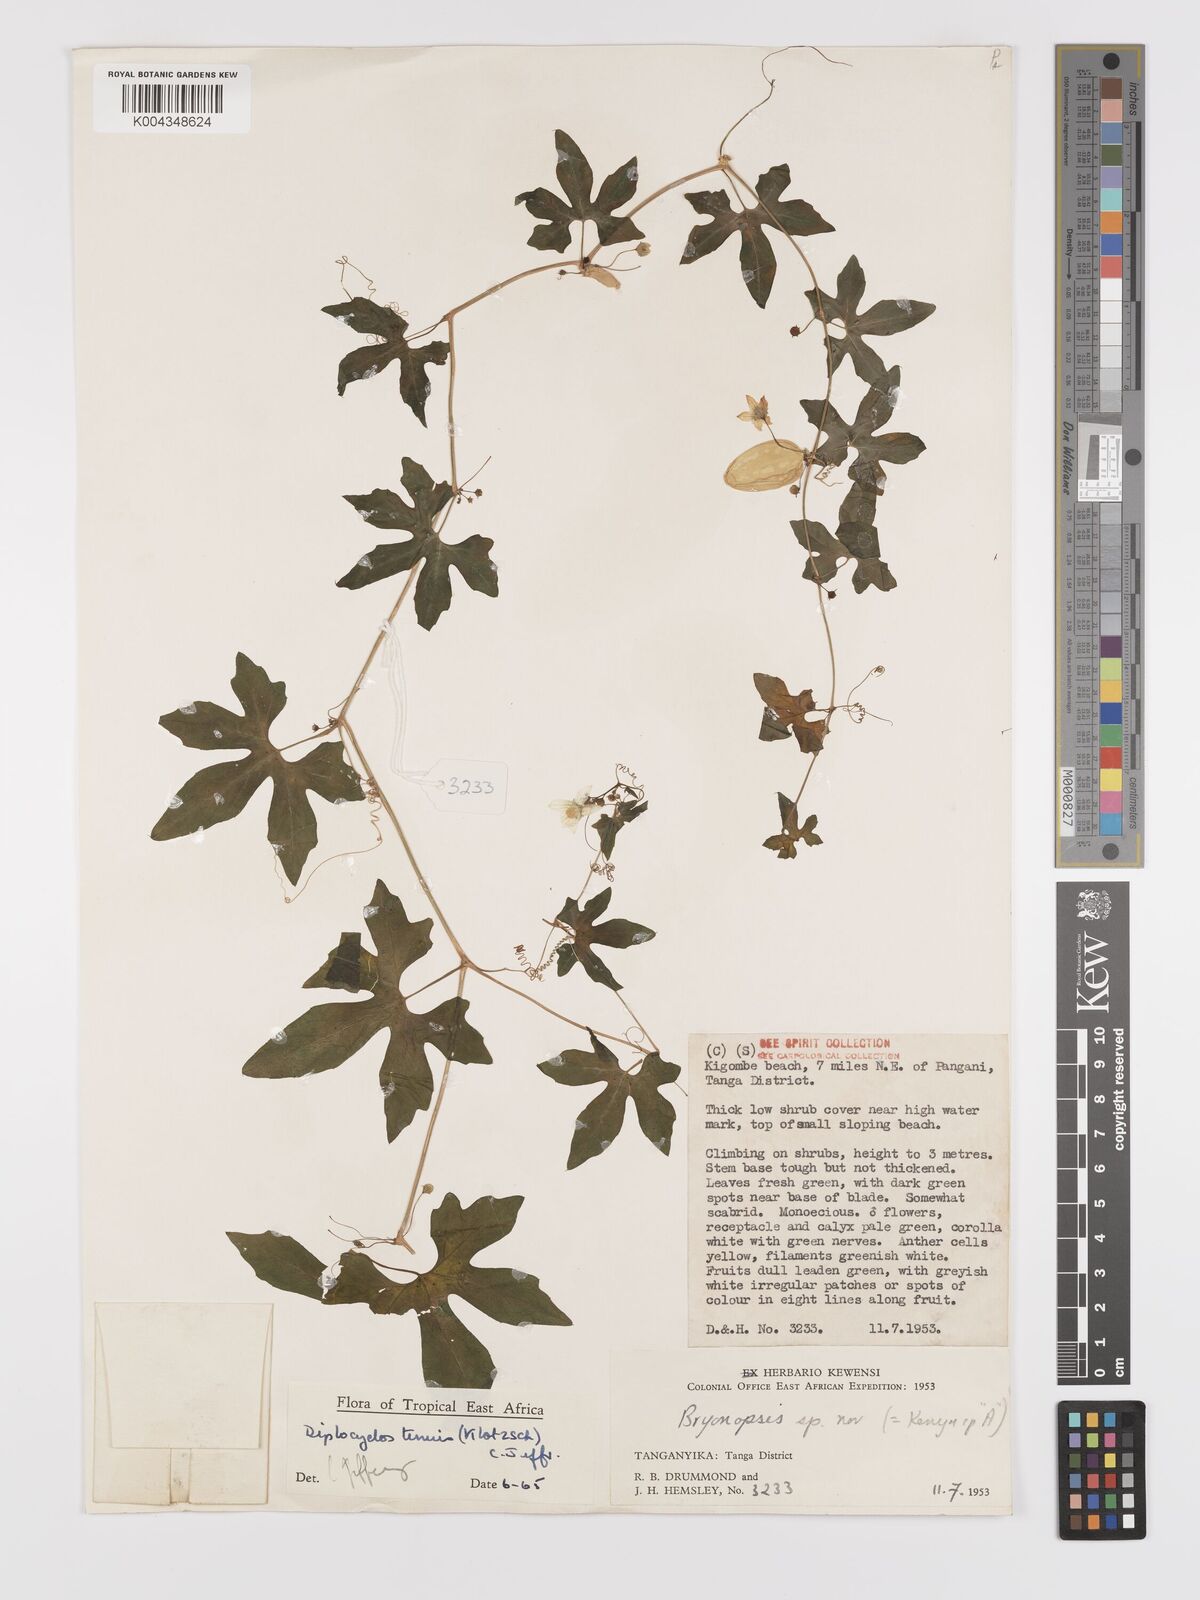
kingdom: Plantae
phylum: Tracheophyta
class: Magnoliopsida
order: Cucurbitales
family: Cucurbitaceae
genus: Diplocyclos
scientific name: Diplocyclos tenuis
